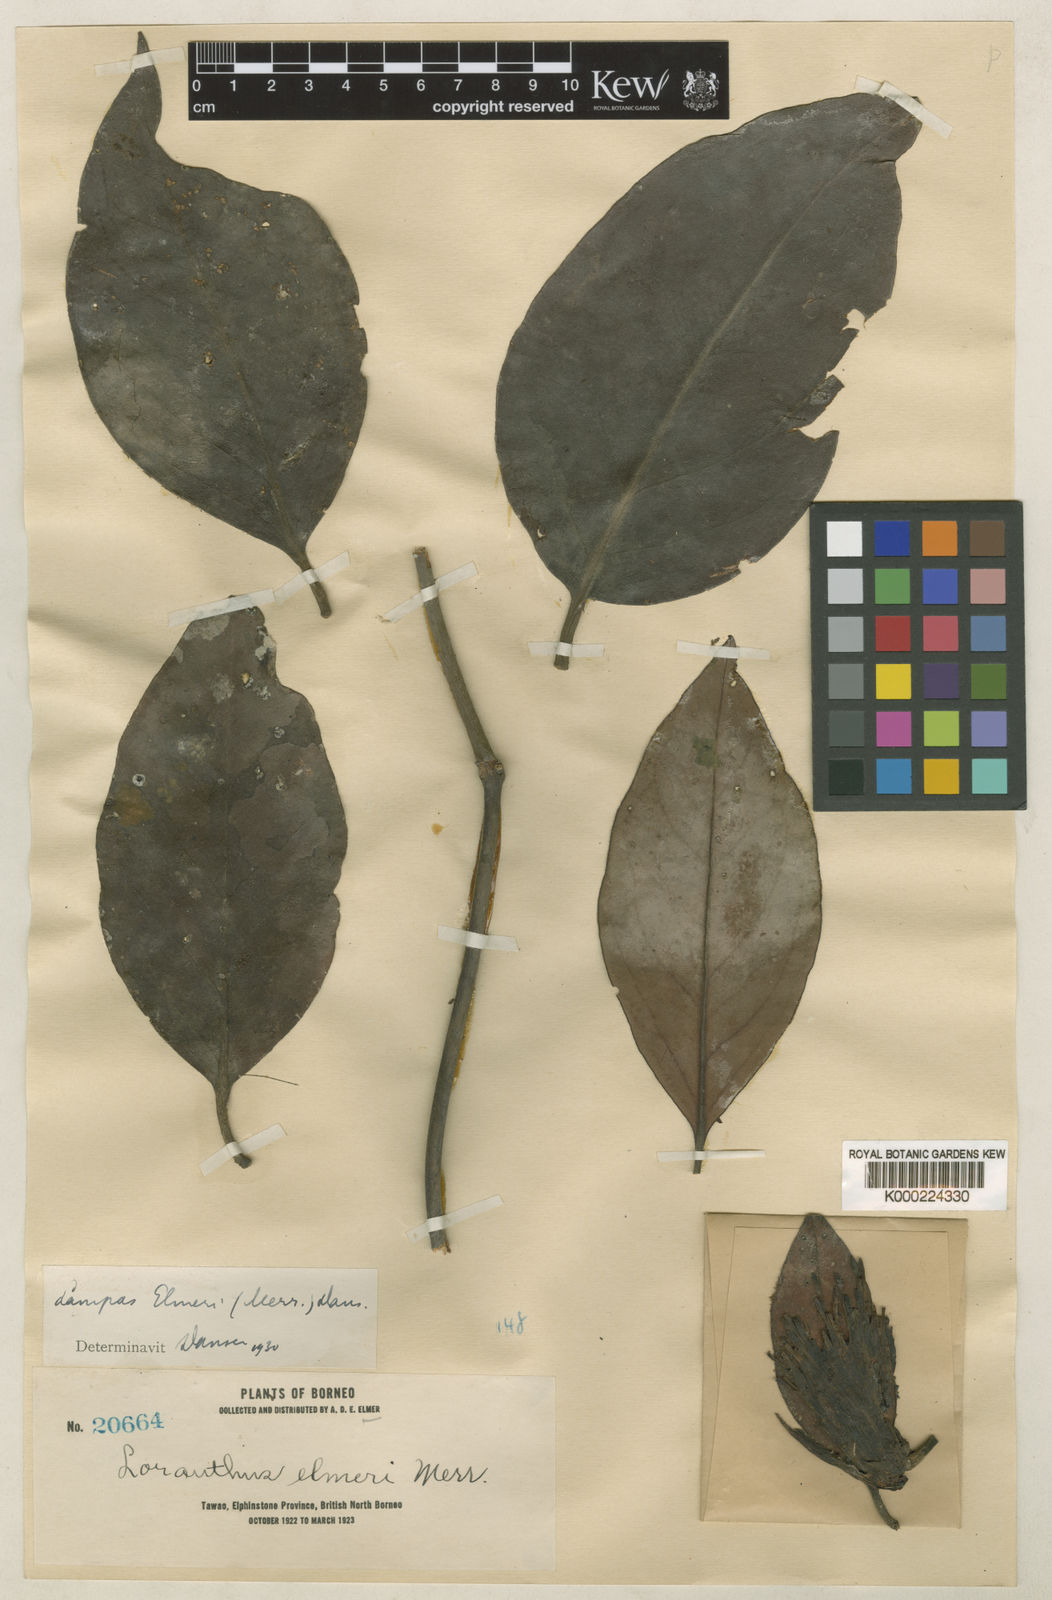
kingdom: Plantae
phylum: Tracheophyta
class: Magnoliopsida
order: Santalales
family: Loranthaceae
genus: Lampas
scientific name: Lampas elmeri
